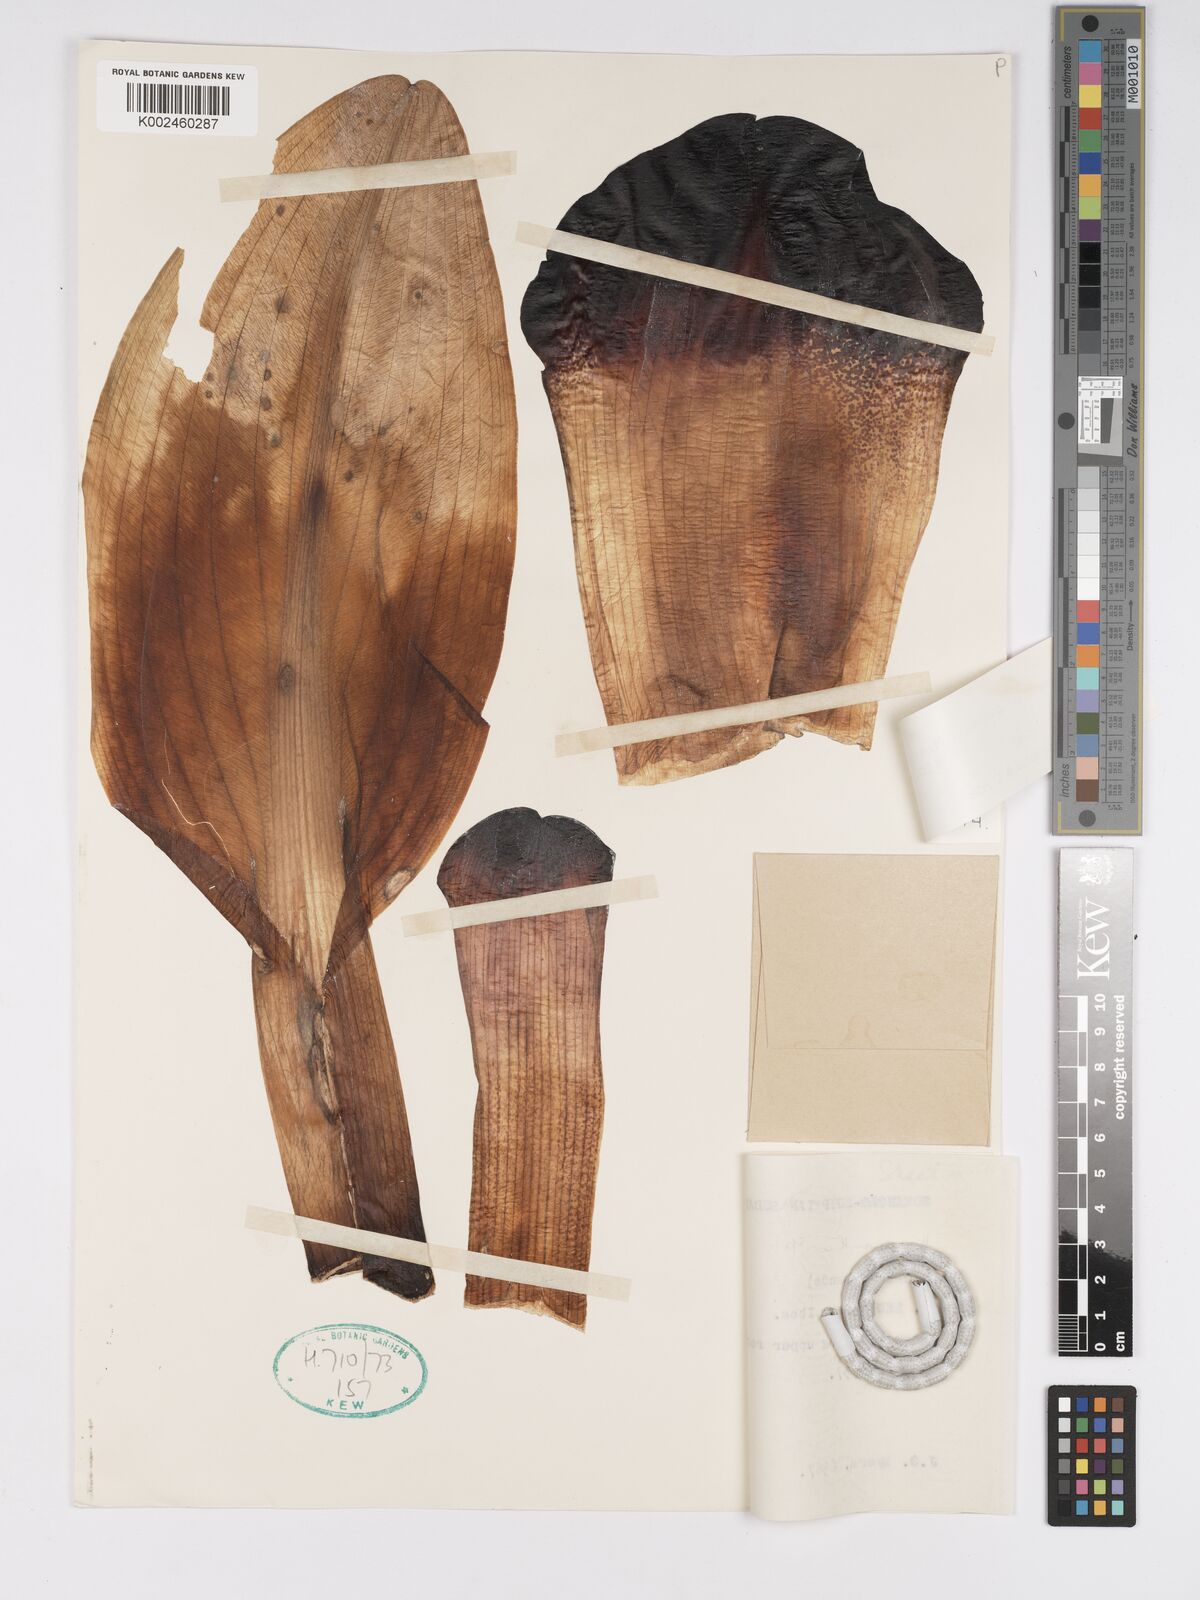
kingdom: Plantae
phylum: Tracheophyta
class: Liliopsida
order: Asparagales
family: Amaryllidaceae
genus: Scadoxus
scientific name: Scadoxus multiflorus
